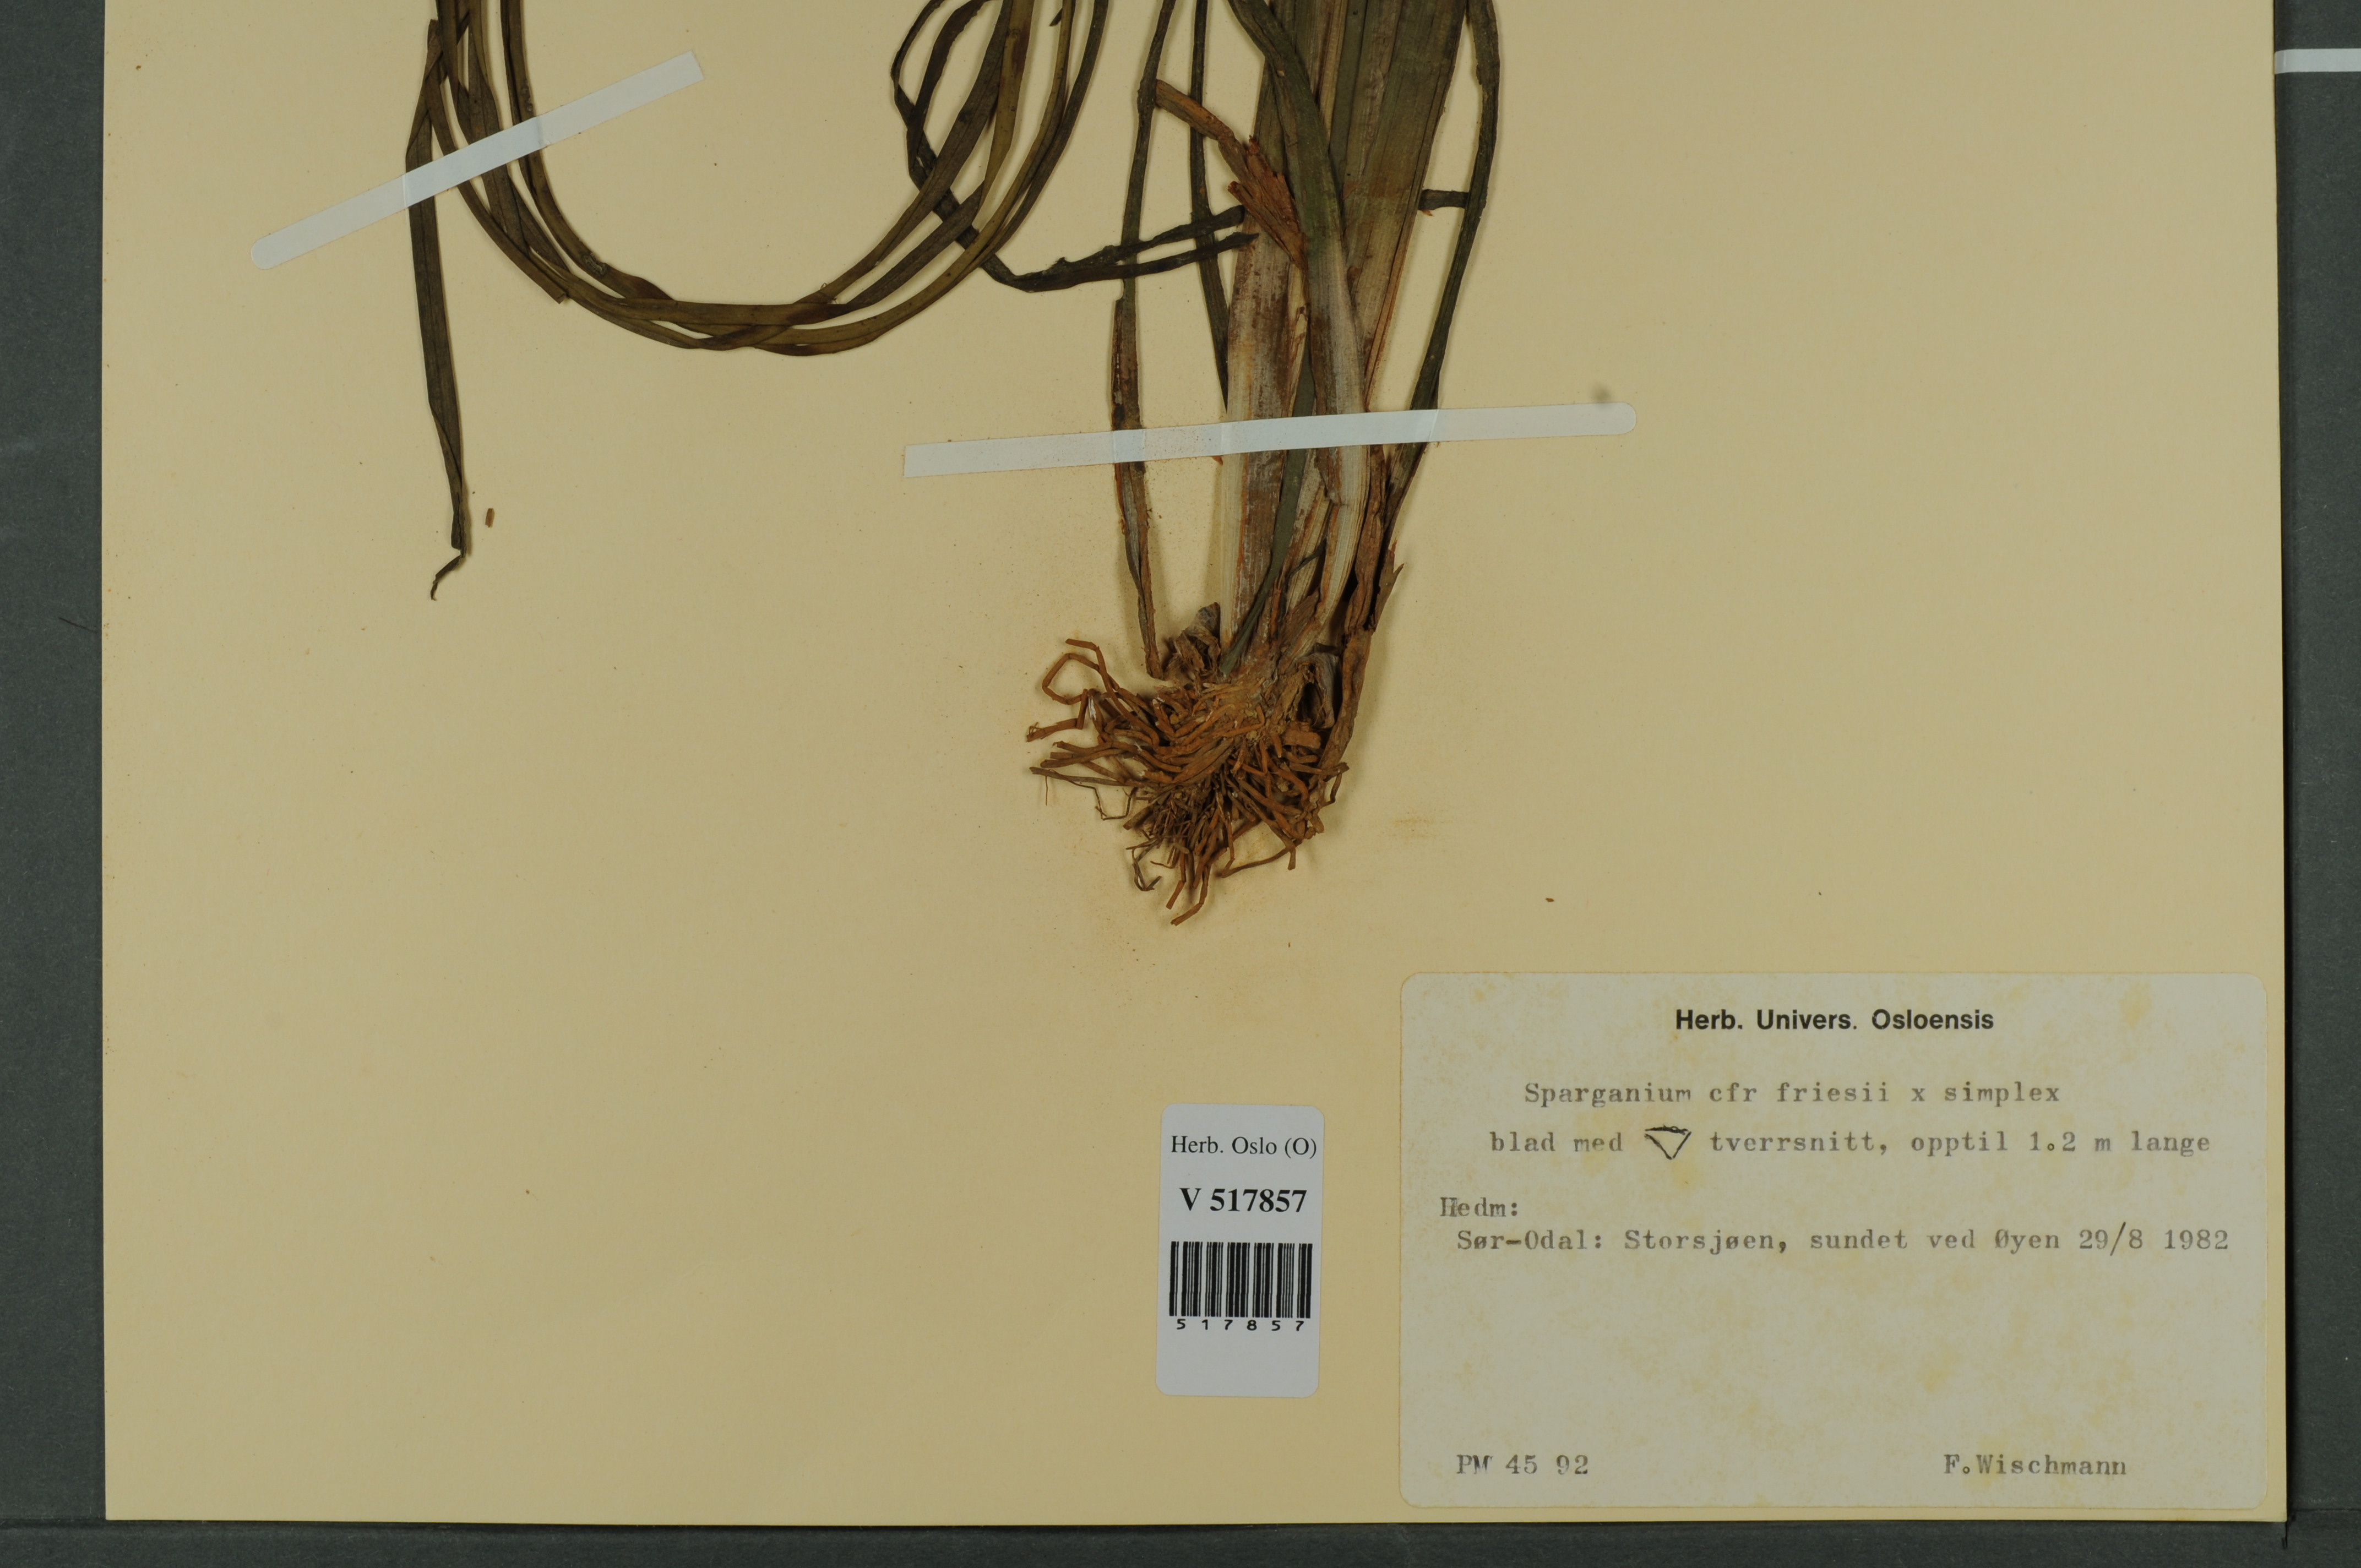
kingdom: Plantae
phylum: Tracheophyta
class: Liliopsida
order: Poales
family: Typhaceae
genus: Sparganium
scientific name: Sparganium
